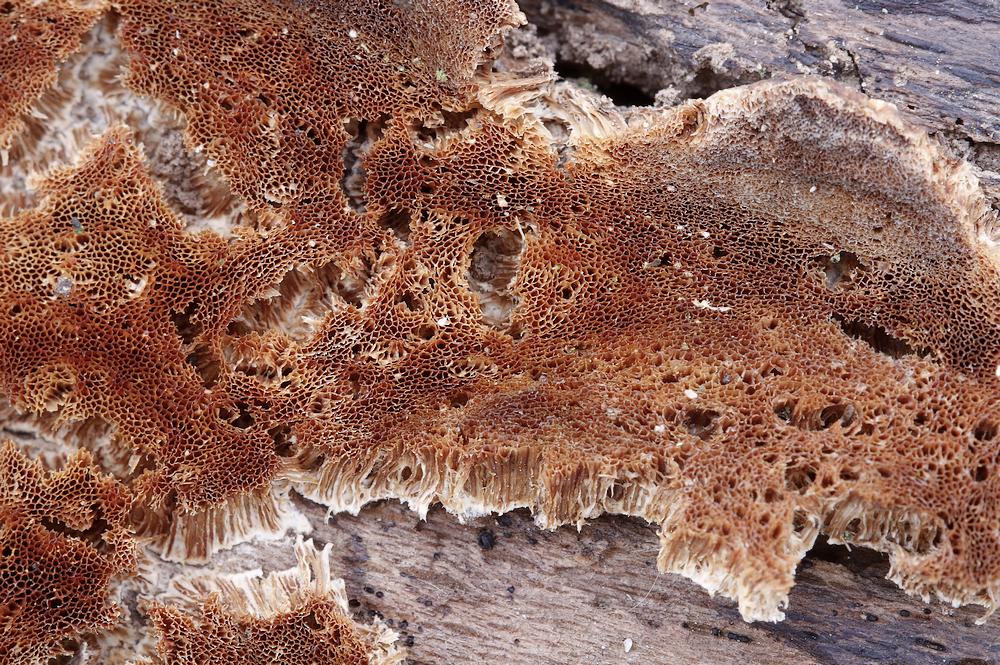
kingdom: Fungi
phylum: Basidiomycota
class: Agaricomycetes
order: Polyporales
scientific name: Polyporales
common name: poresvampordenen
